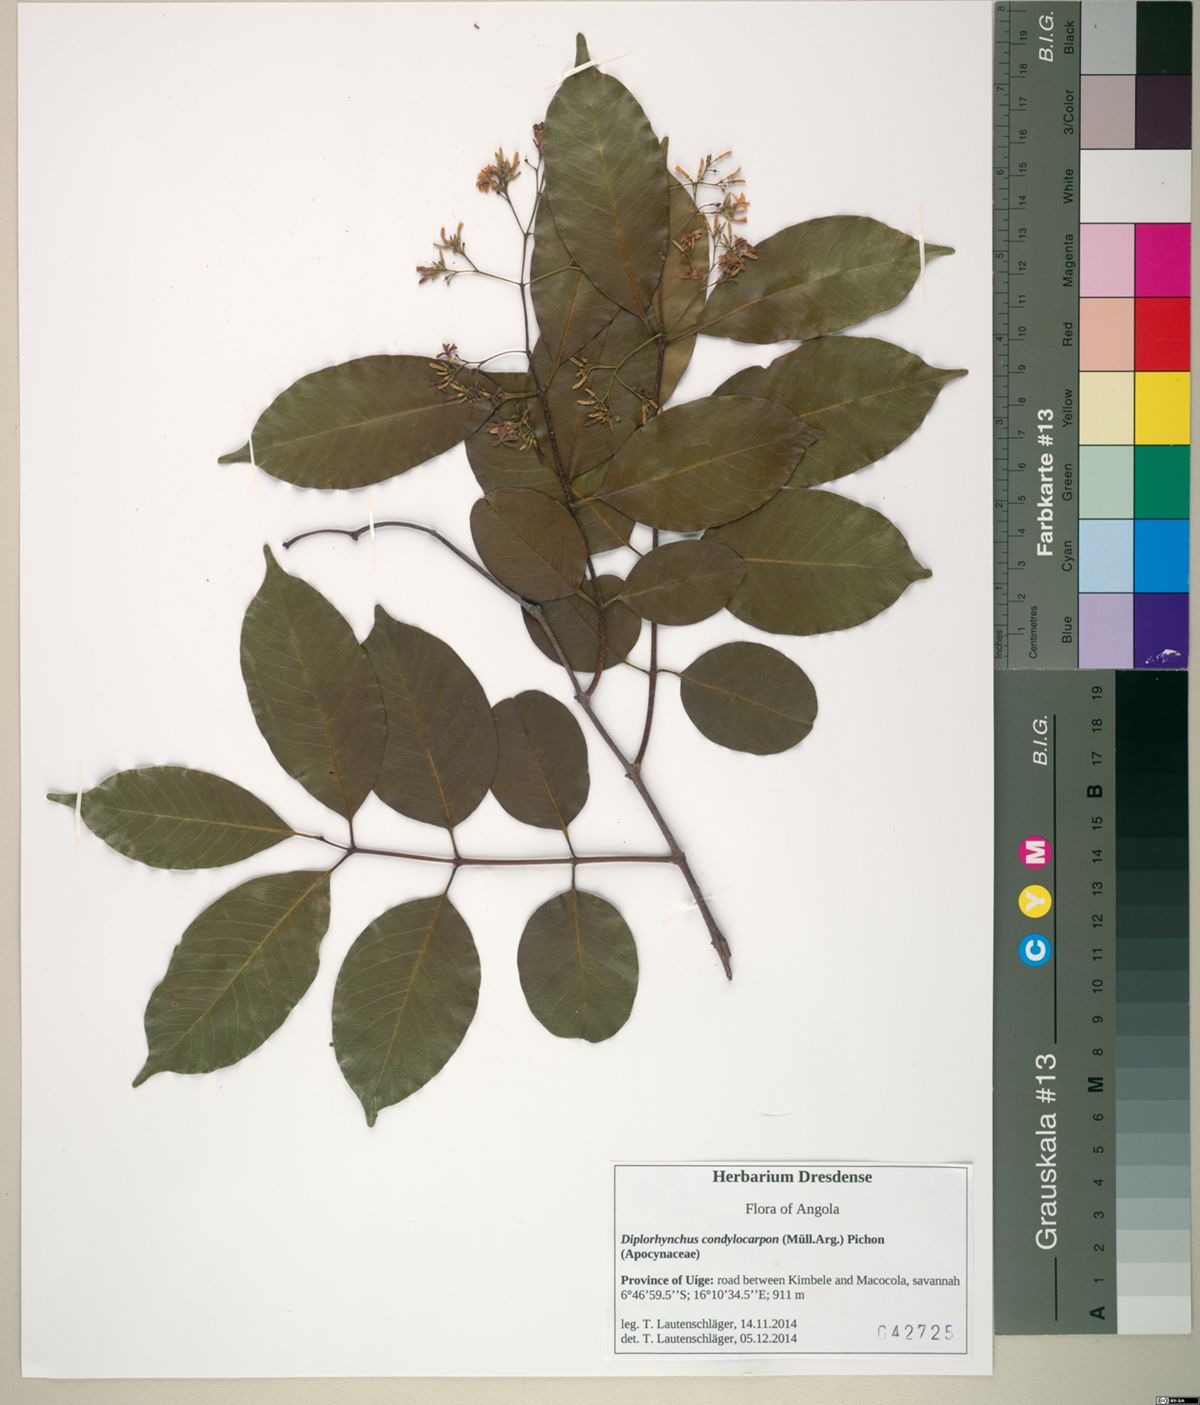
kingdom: Plantae
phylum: Tracheophyta
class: Magnoliopsida
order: Gentianales
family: Apocynaceae
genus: Diplorhynchus
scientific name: Diplorhynchus condylocarpon
